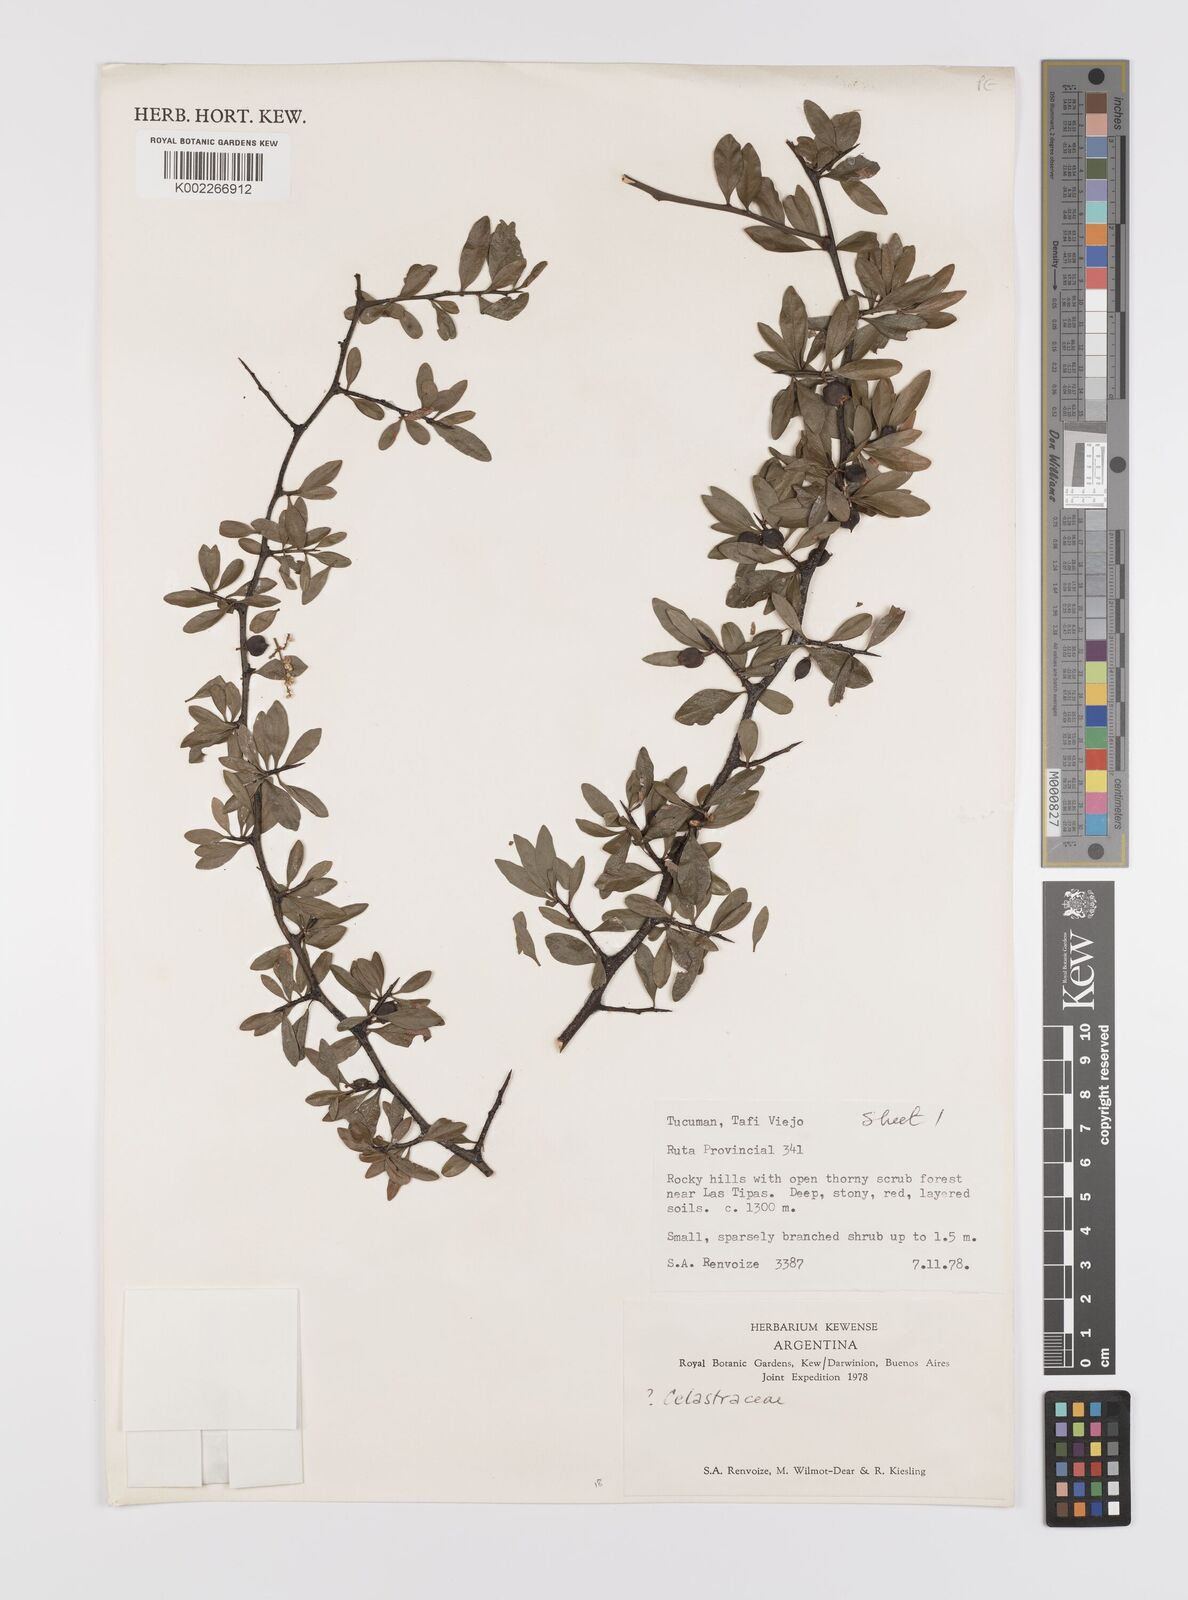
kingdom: Plantae
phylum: Tracheophyta
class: Magnoliopsida
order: Celastrales
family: Celastraceae
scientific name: Celastraceae
